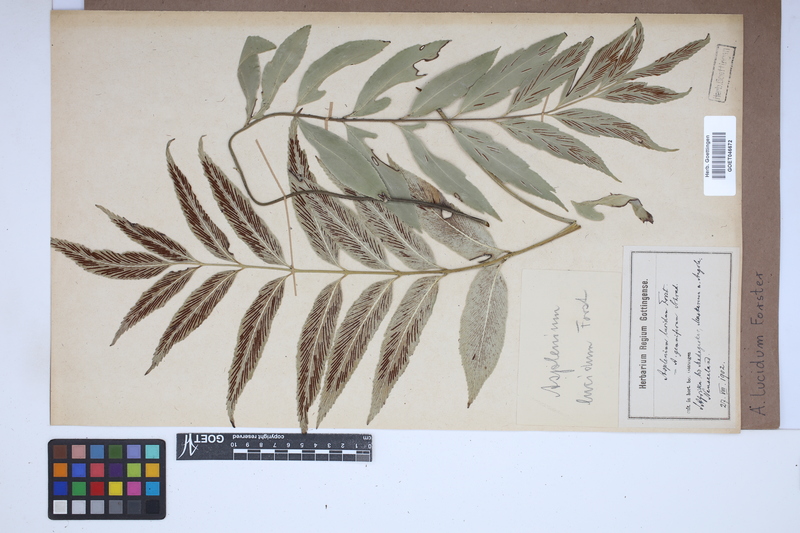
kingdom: Plantae
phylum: Tracheophyta
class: Polypodiopsida
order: Polypodiales
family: Aspleniaceae
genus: Asplenium
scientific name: Asplenium
